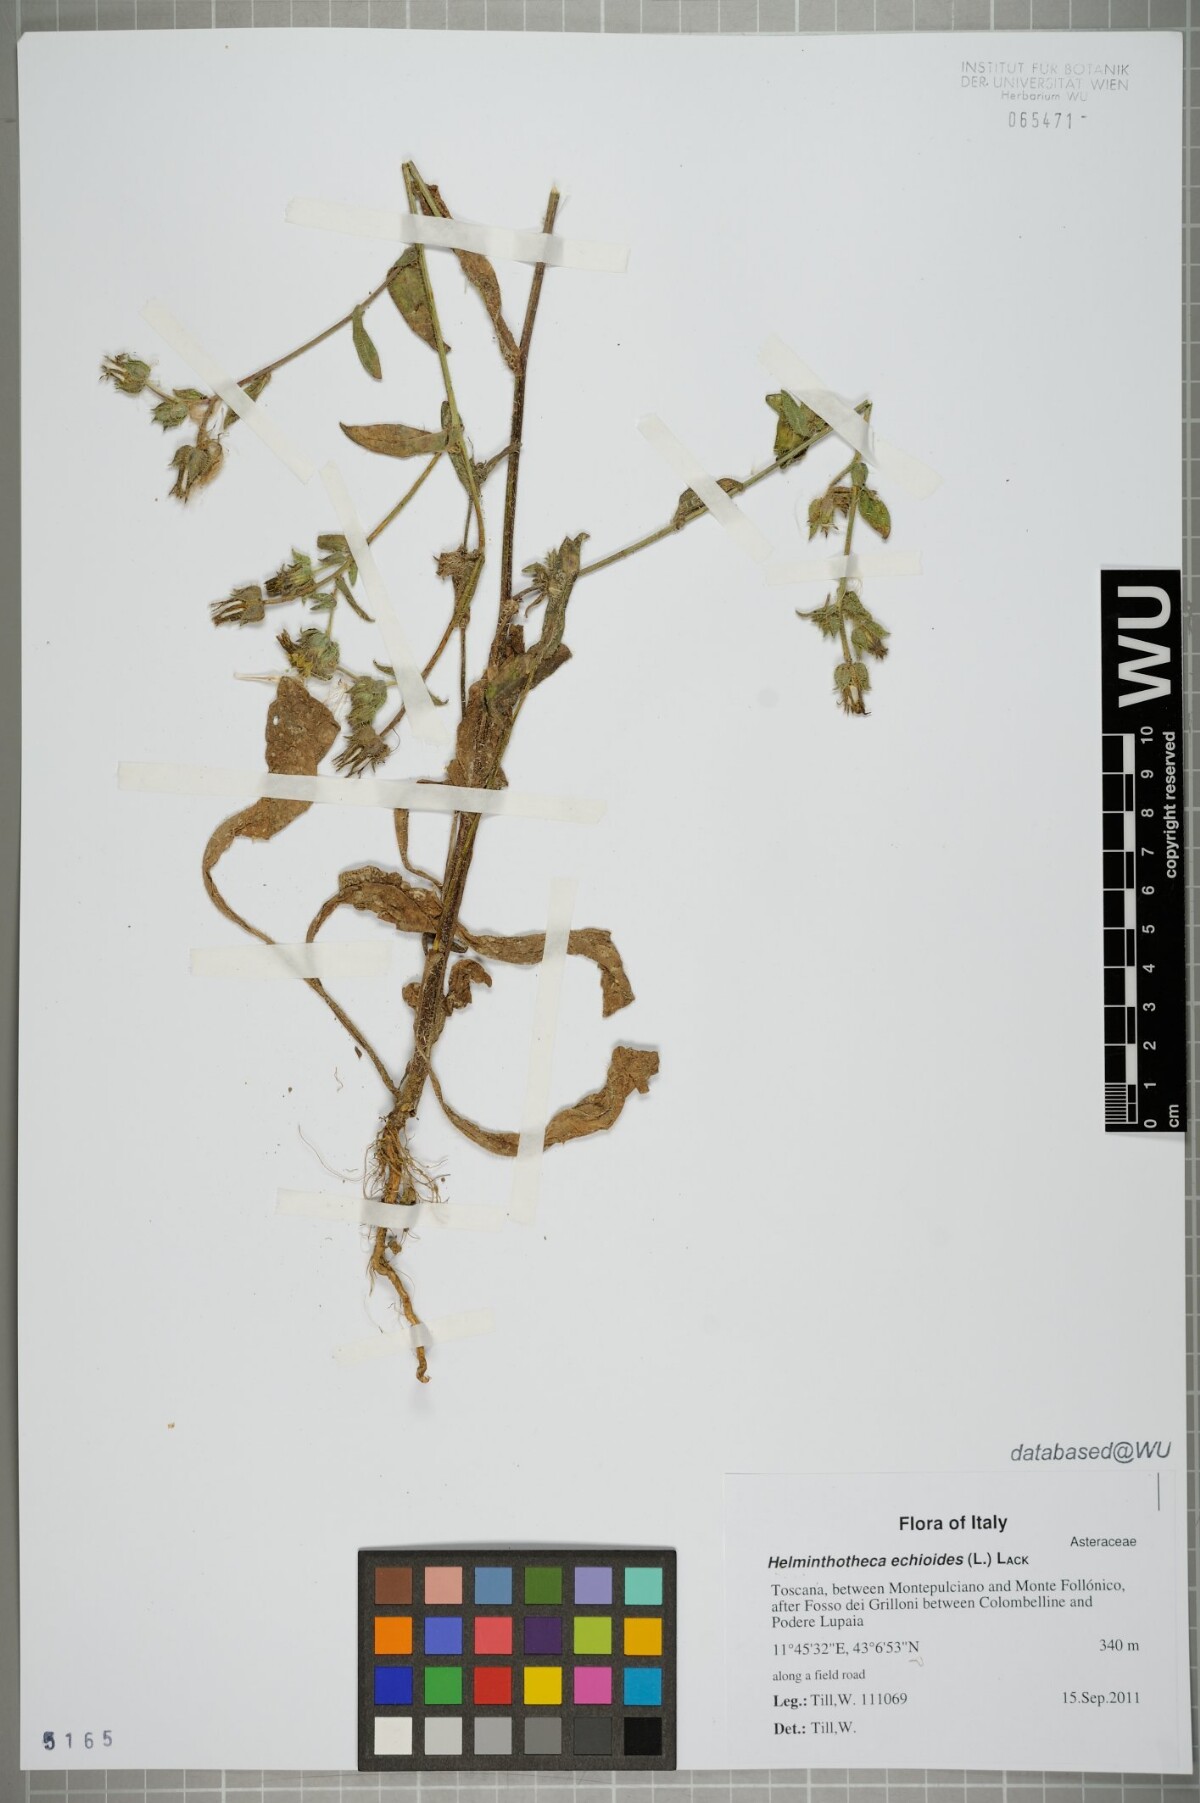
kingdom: Plantae
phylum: Tracheophyta
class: Magnoliopsida
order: Asterales
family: Asteraceae
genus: Helminthotheca
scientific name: Helminthotheca echioides
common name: Ox-tongue
